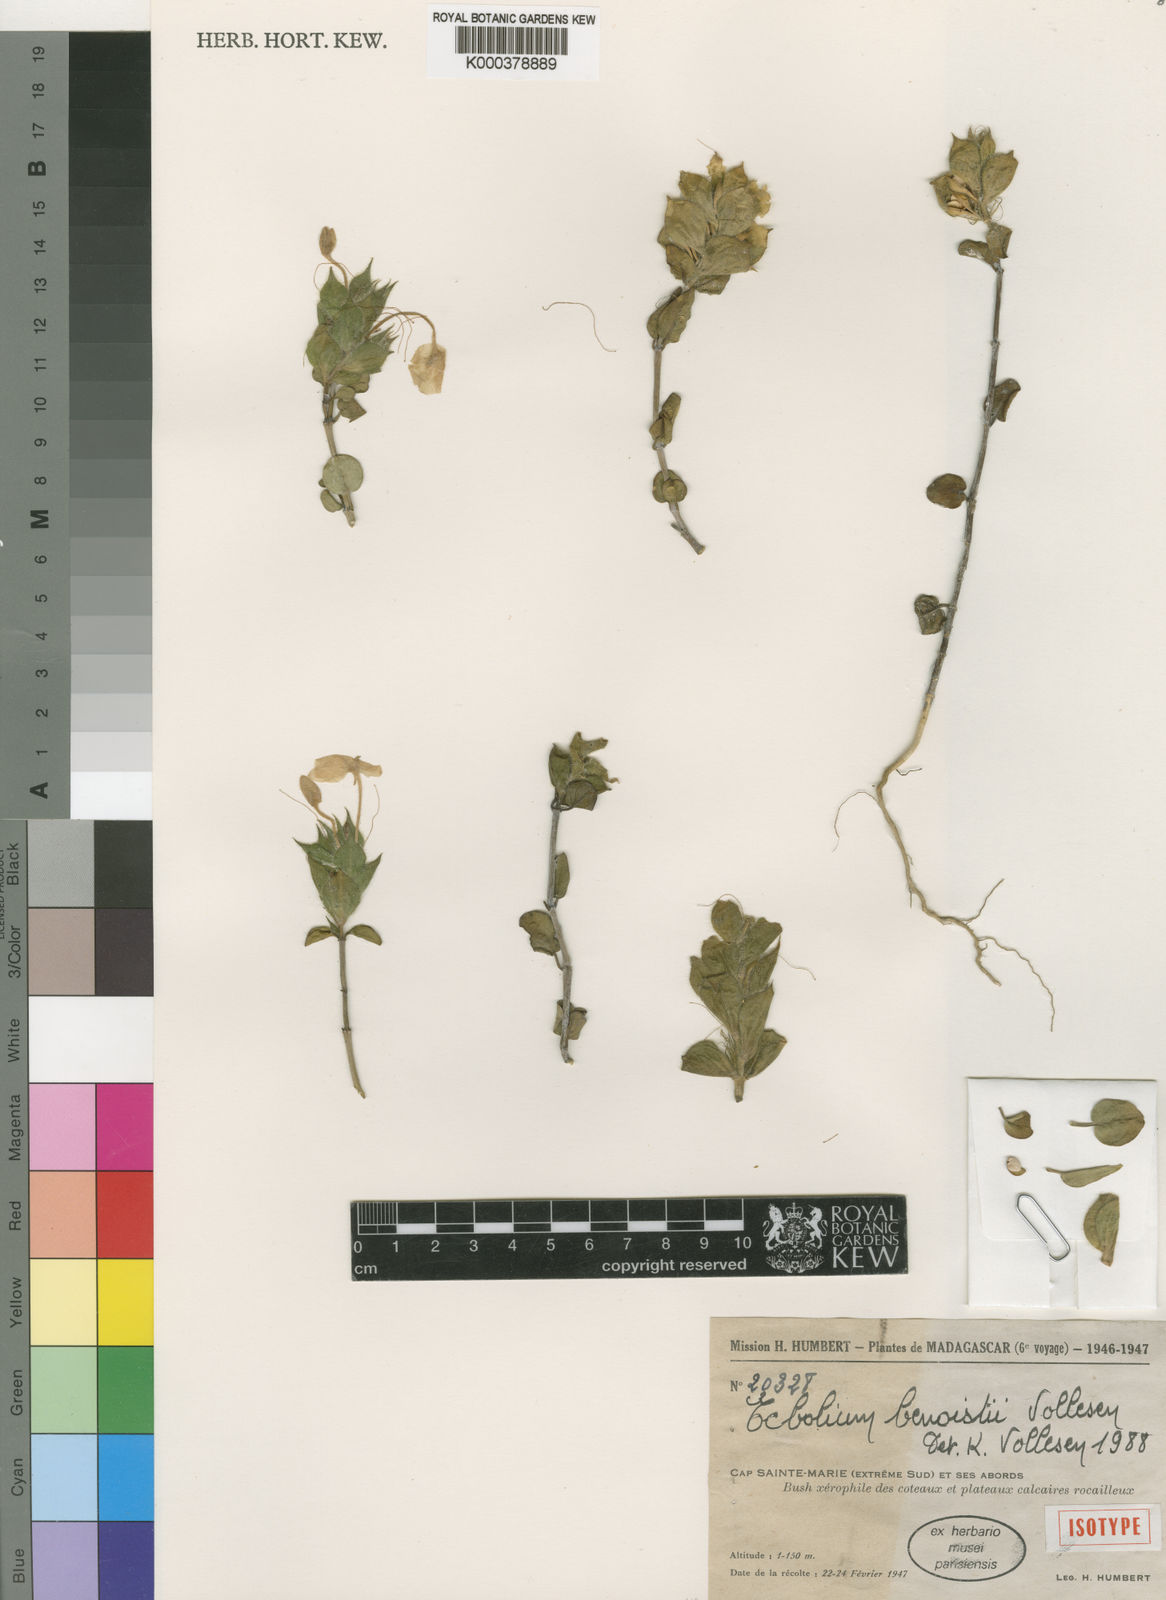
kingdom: Plantae
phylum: Tracheophyta
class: Magnoliopsida
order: Lamiales
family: Acanthaceae
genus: Ecbolium
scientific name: Ecbolium benoistii
